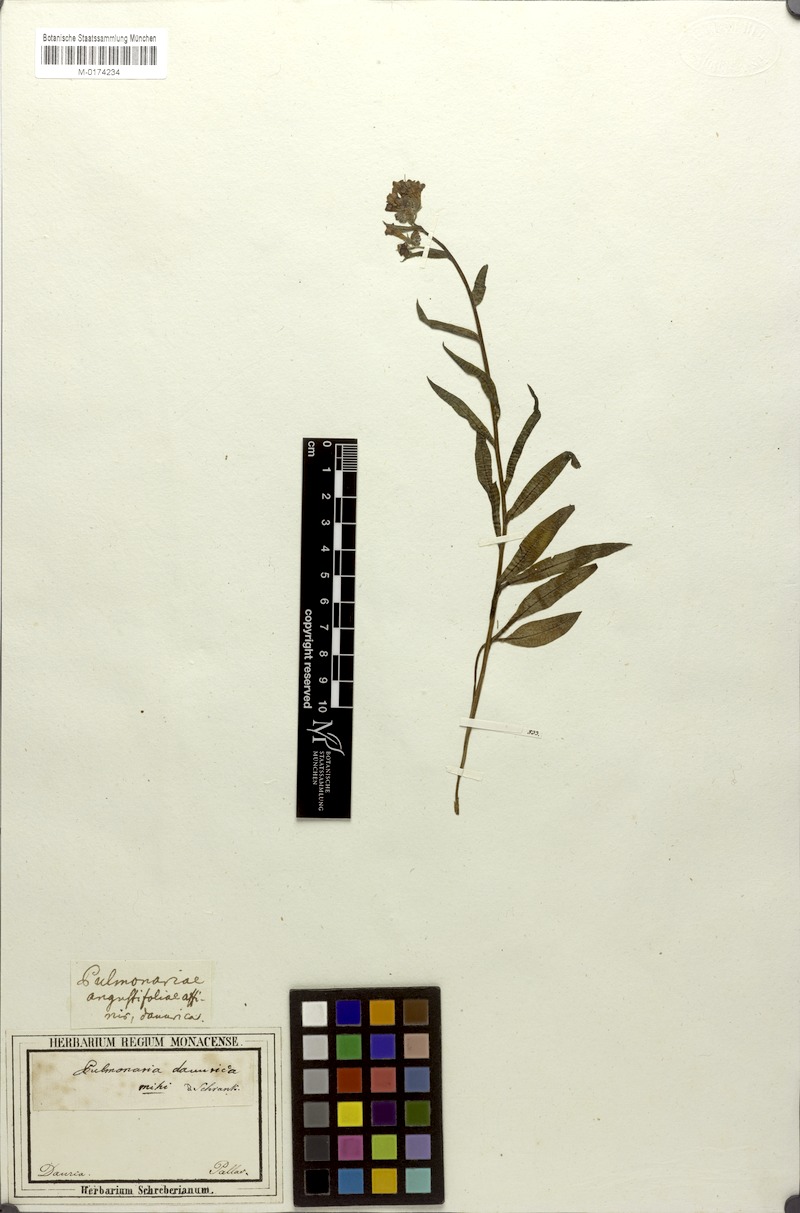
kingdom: Plantae
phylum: Tracheophyta
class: Magnoliopsida
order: Boraginales
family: Boraginaceae
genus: Mertensia
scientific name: Mertensia davurica
